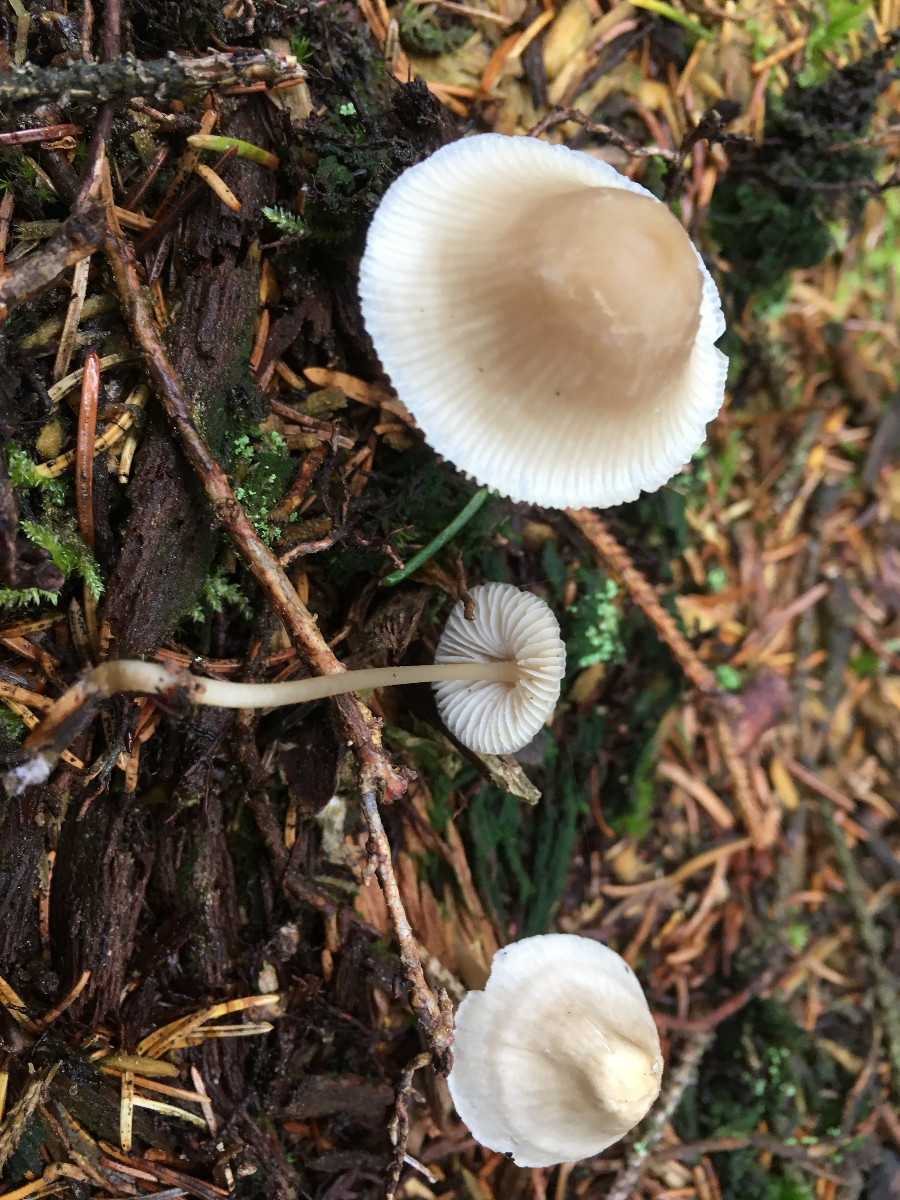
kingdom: Fungi
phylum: Basidiomycota
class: Agaricomycetes
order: Agaricales
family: Mycenaceae
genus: Mycena
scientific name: Mycena
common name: huesvamp
